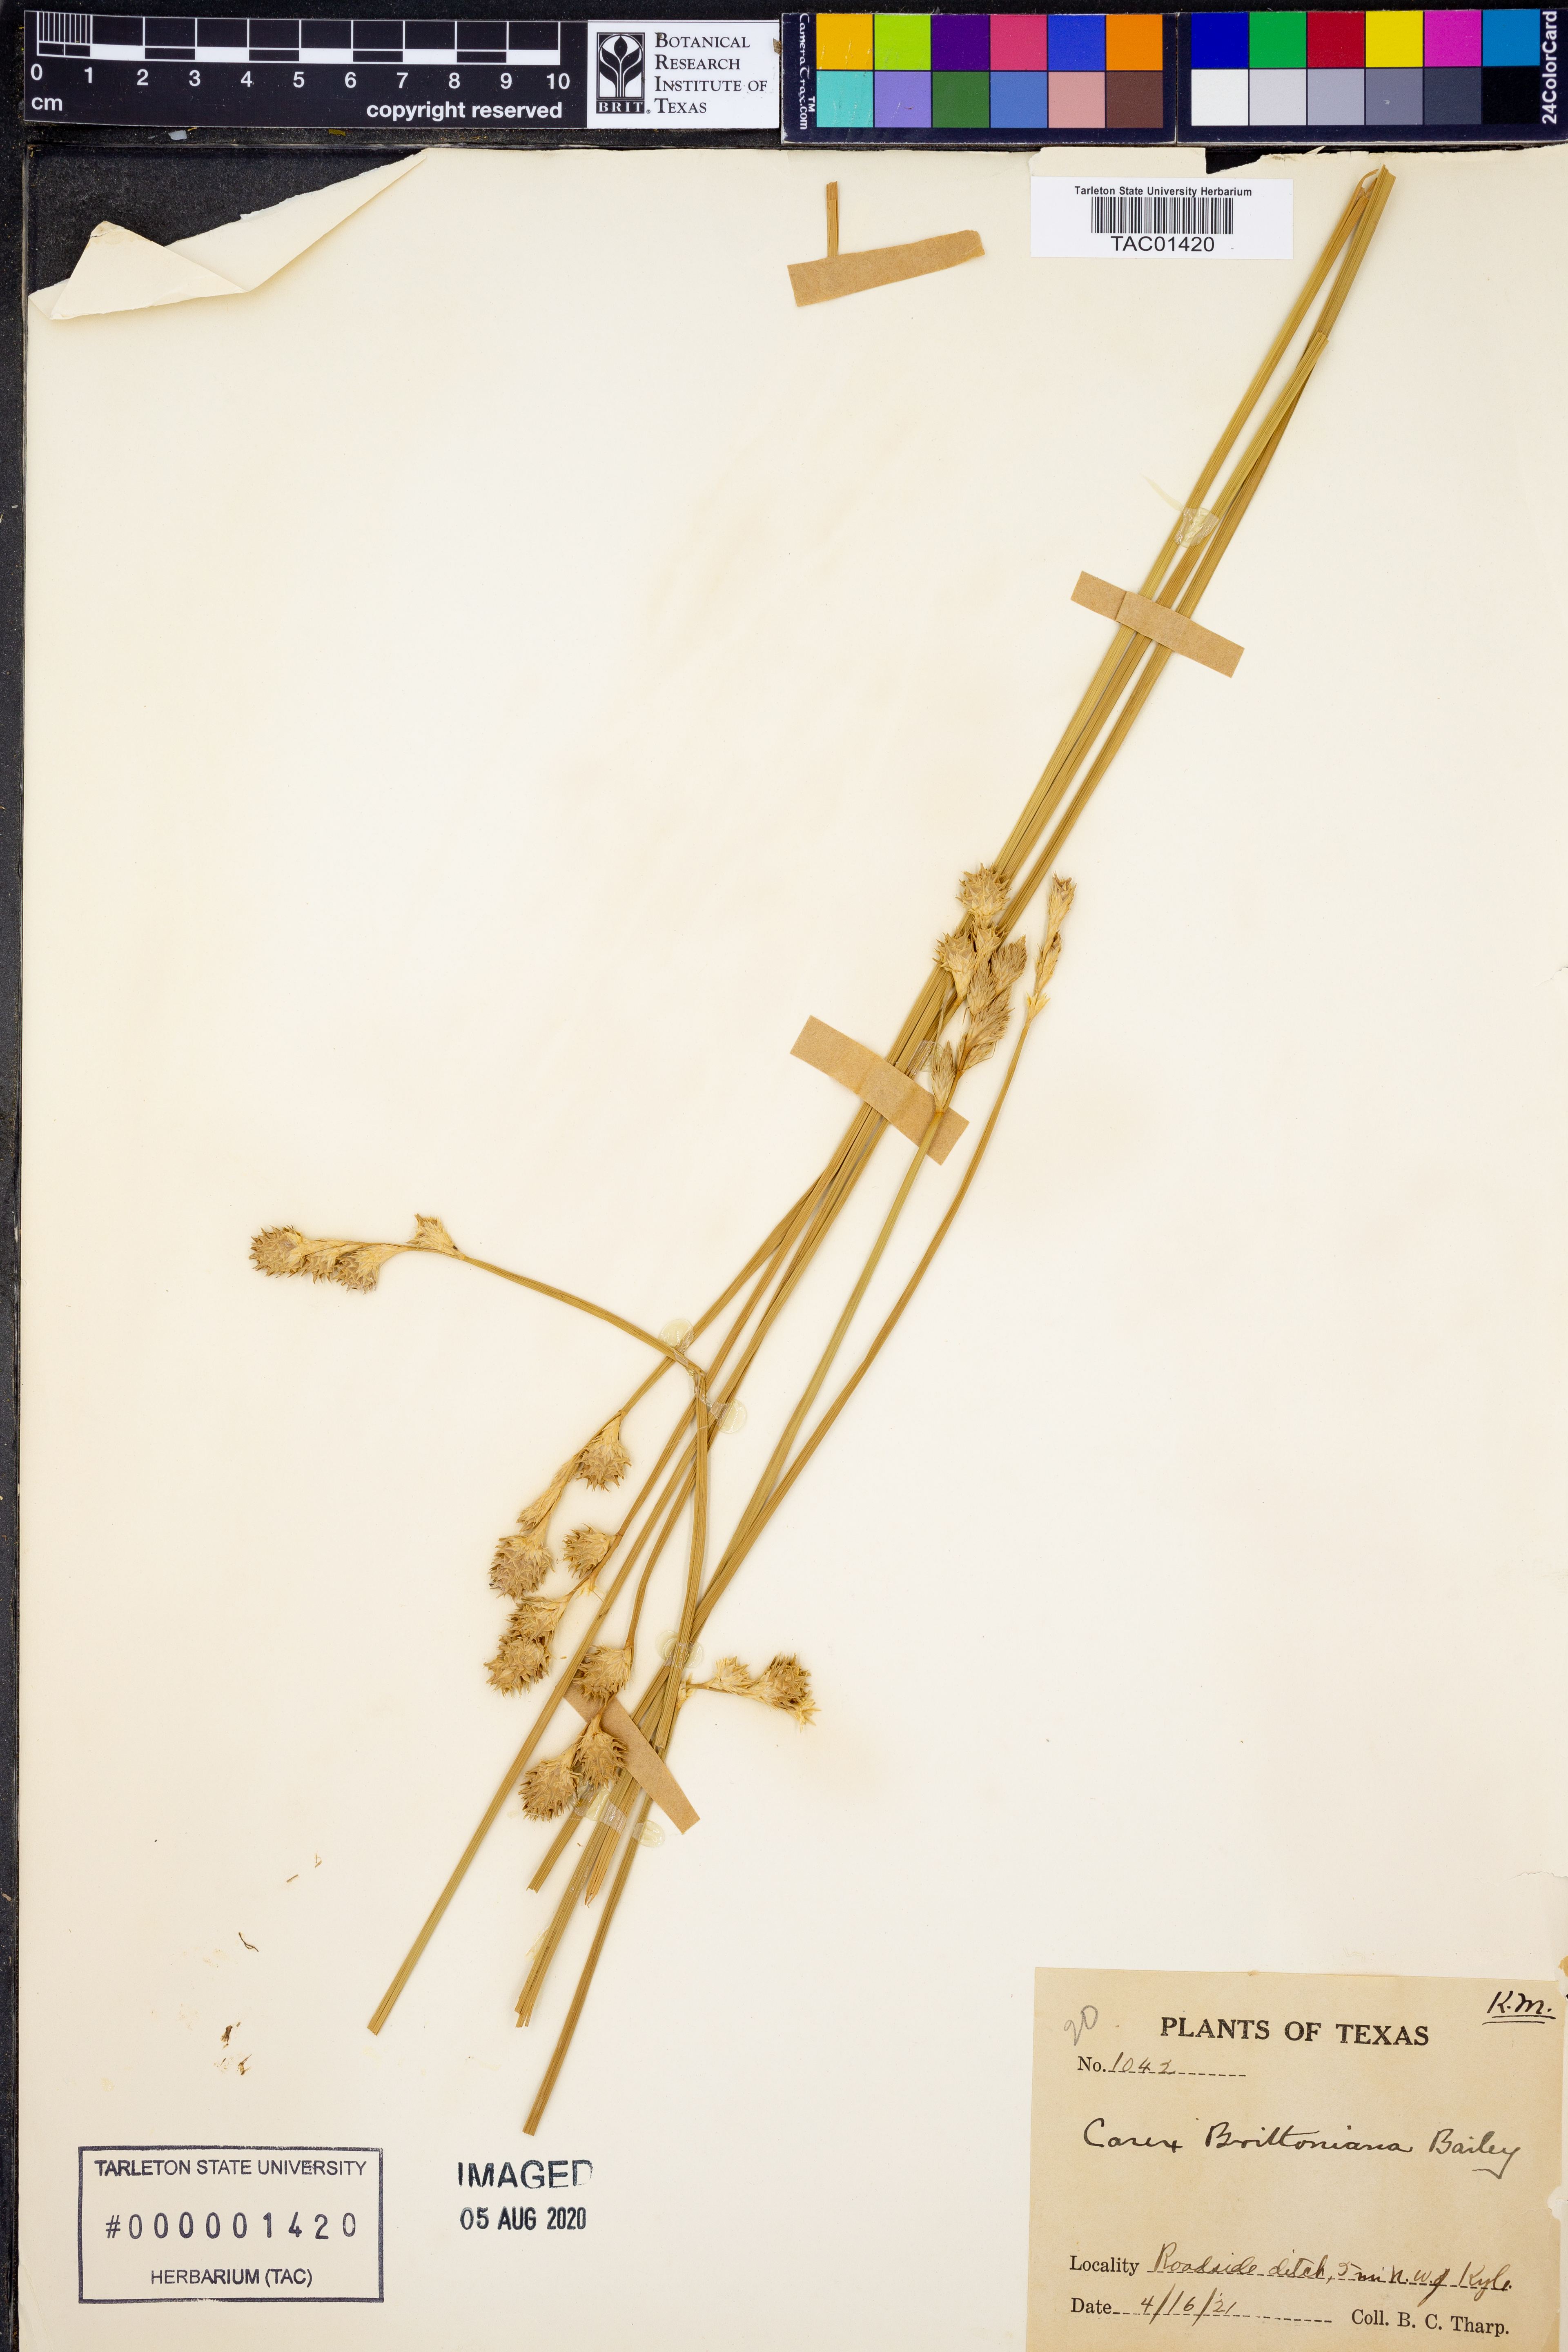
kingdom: Plantae
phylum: Tracheophyta
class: Liliopsida
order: Poales
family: Cyperaceae
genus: Carex
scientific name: Carex tetrastachya
